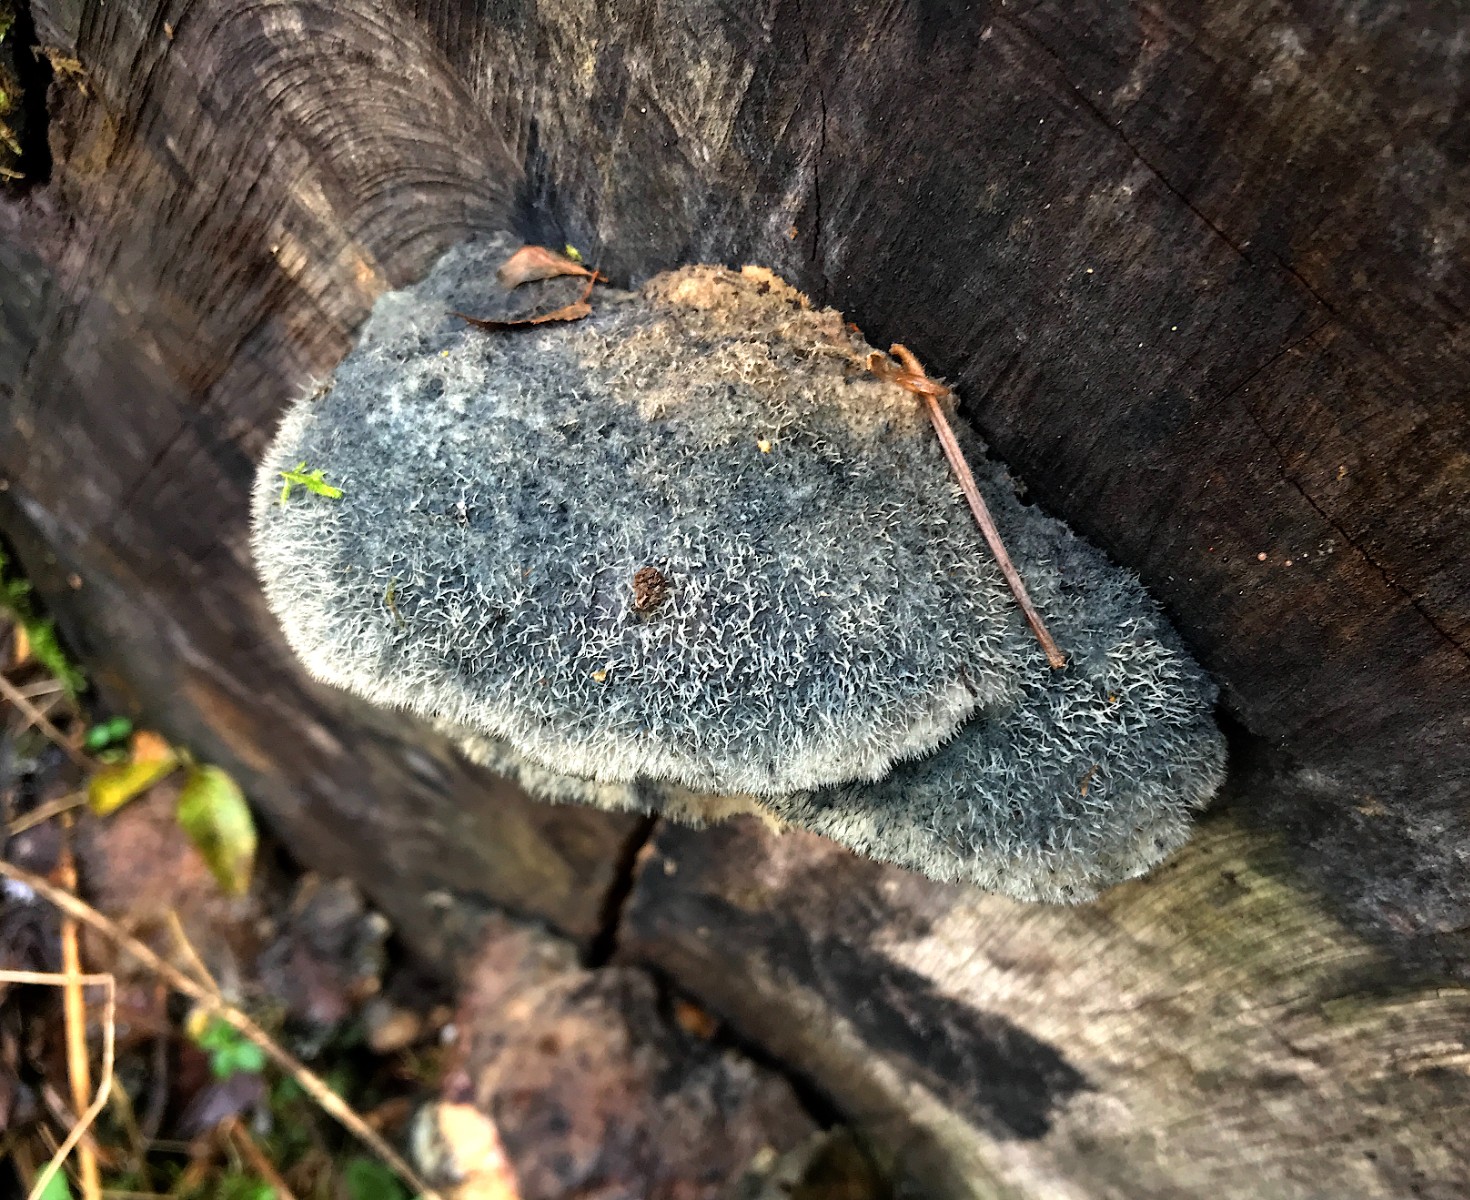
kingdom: Fungi
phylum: Basidiomycota
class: Agaricomycetes
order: Polyporales
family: Polyporaceae
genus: Cyanosporus
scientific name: Cyanosporus caesius
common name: blålig kødporesvamp
